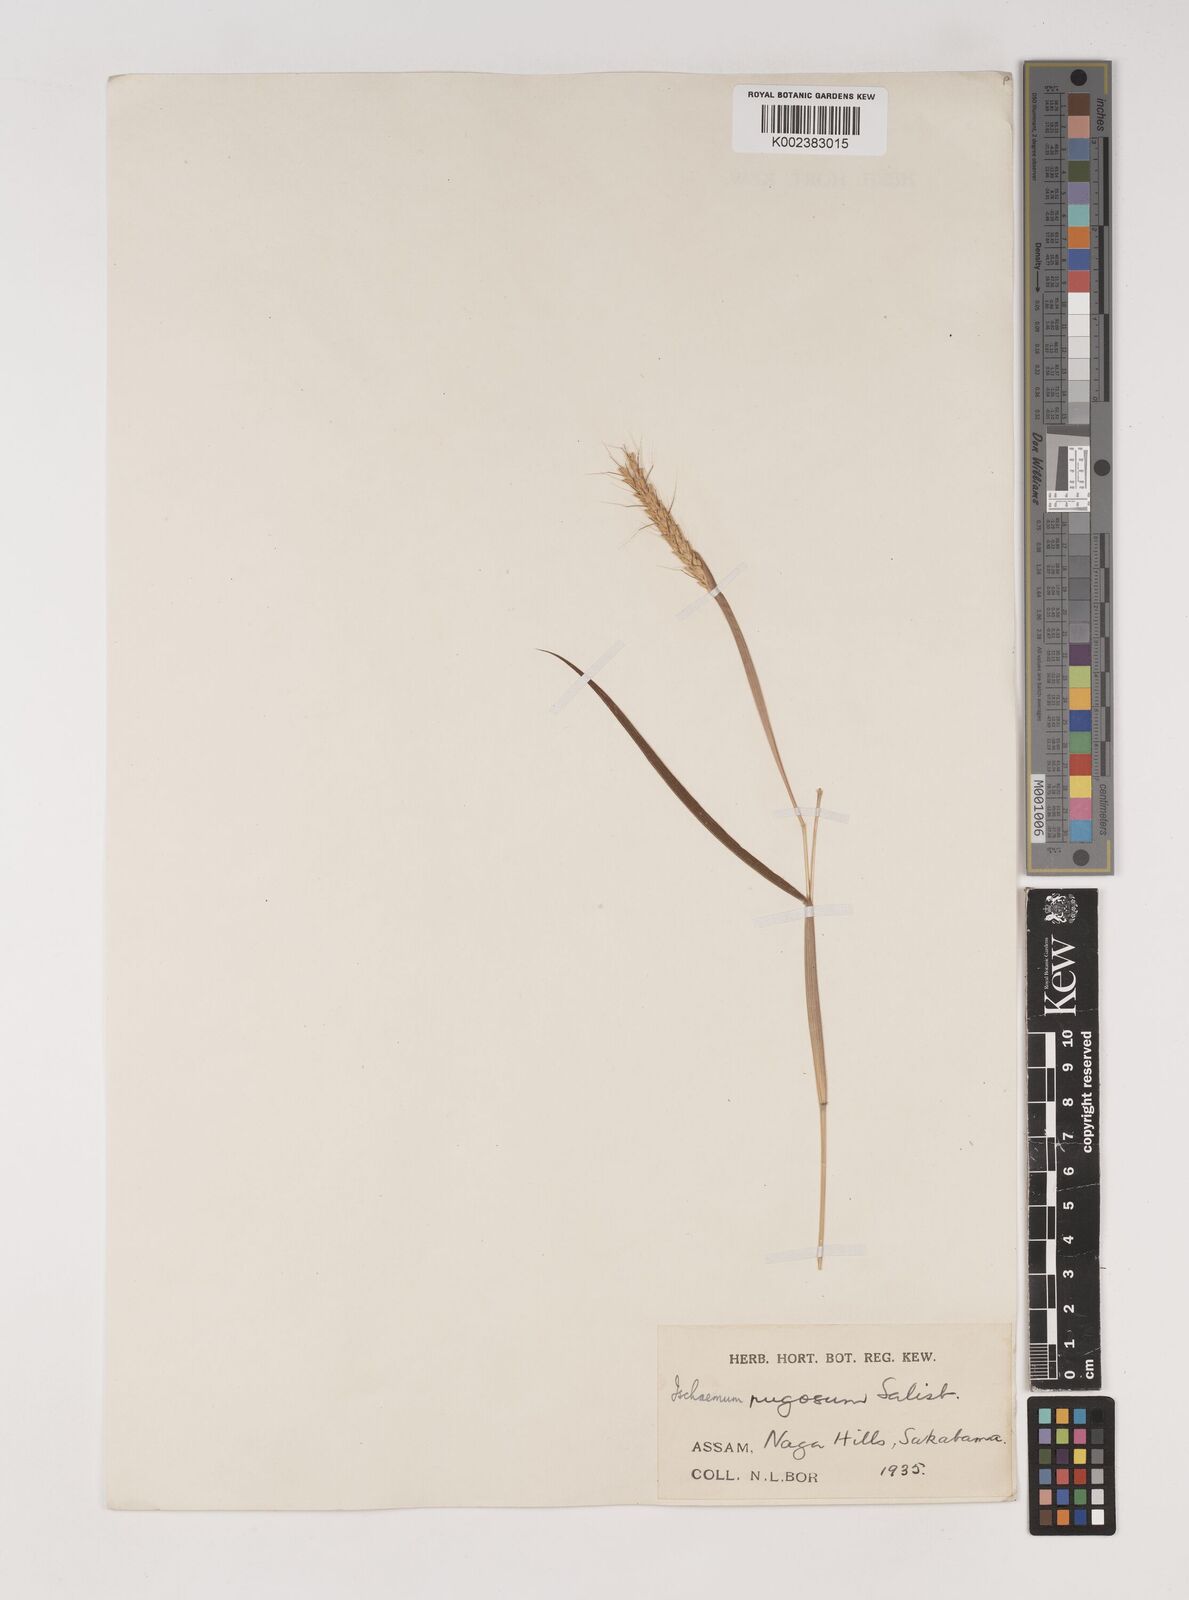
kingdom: Plantae
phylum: Tracheophyta
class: Liliopsida
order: Poales
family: Poaceae
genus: Ischaemum
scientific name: Ischaemum rugosum
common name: Saramatta grass
